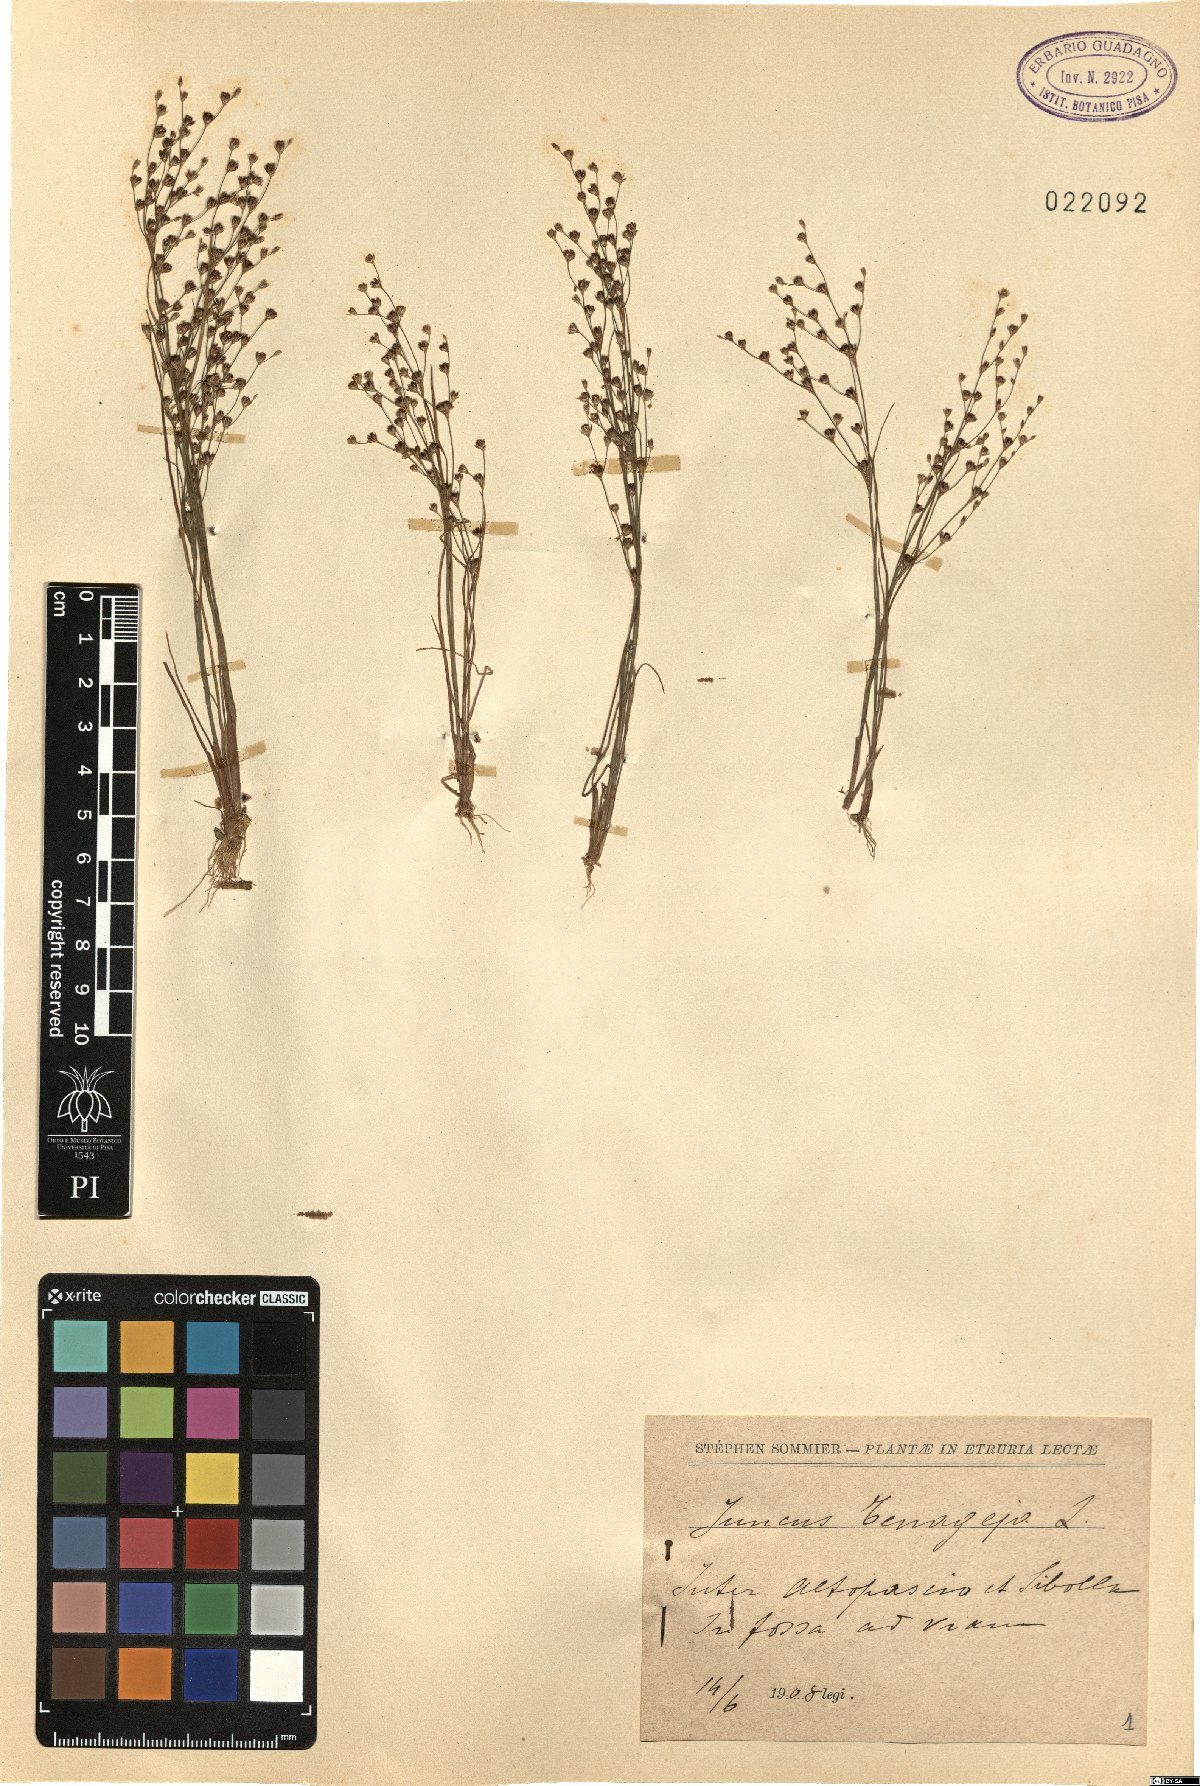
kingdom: Plantae
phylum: Tracheophyta
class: Liliopsida
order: Poales
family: Juncaceae
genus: Juncus
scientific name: Juncus tenageia
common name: Sand rush
